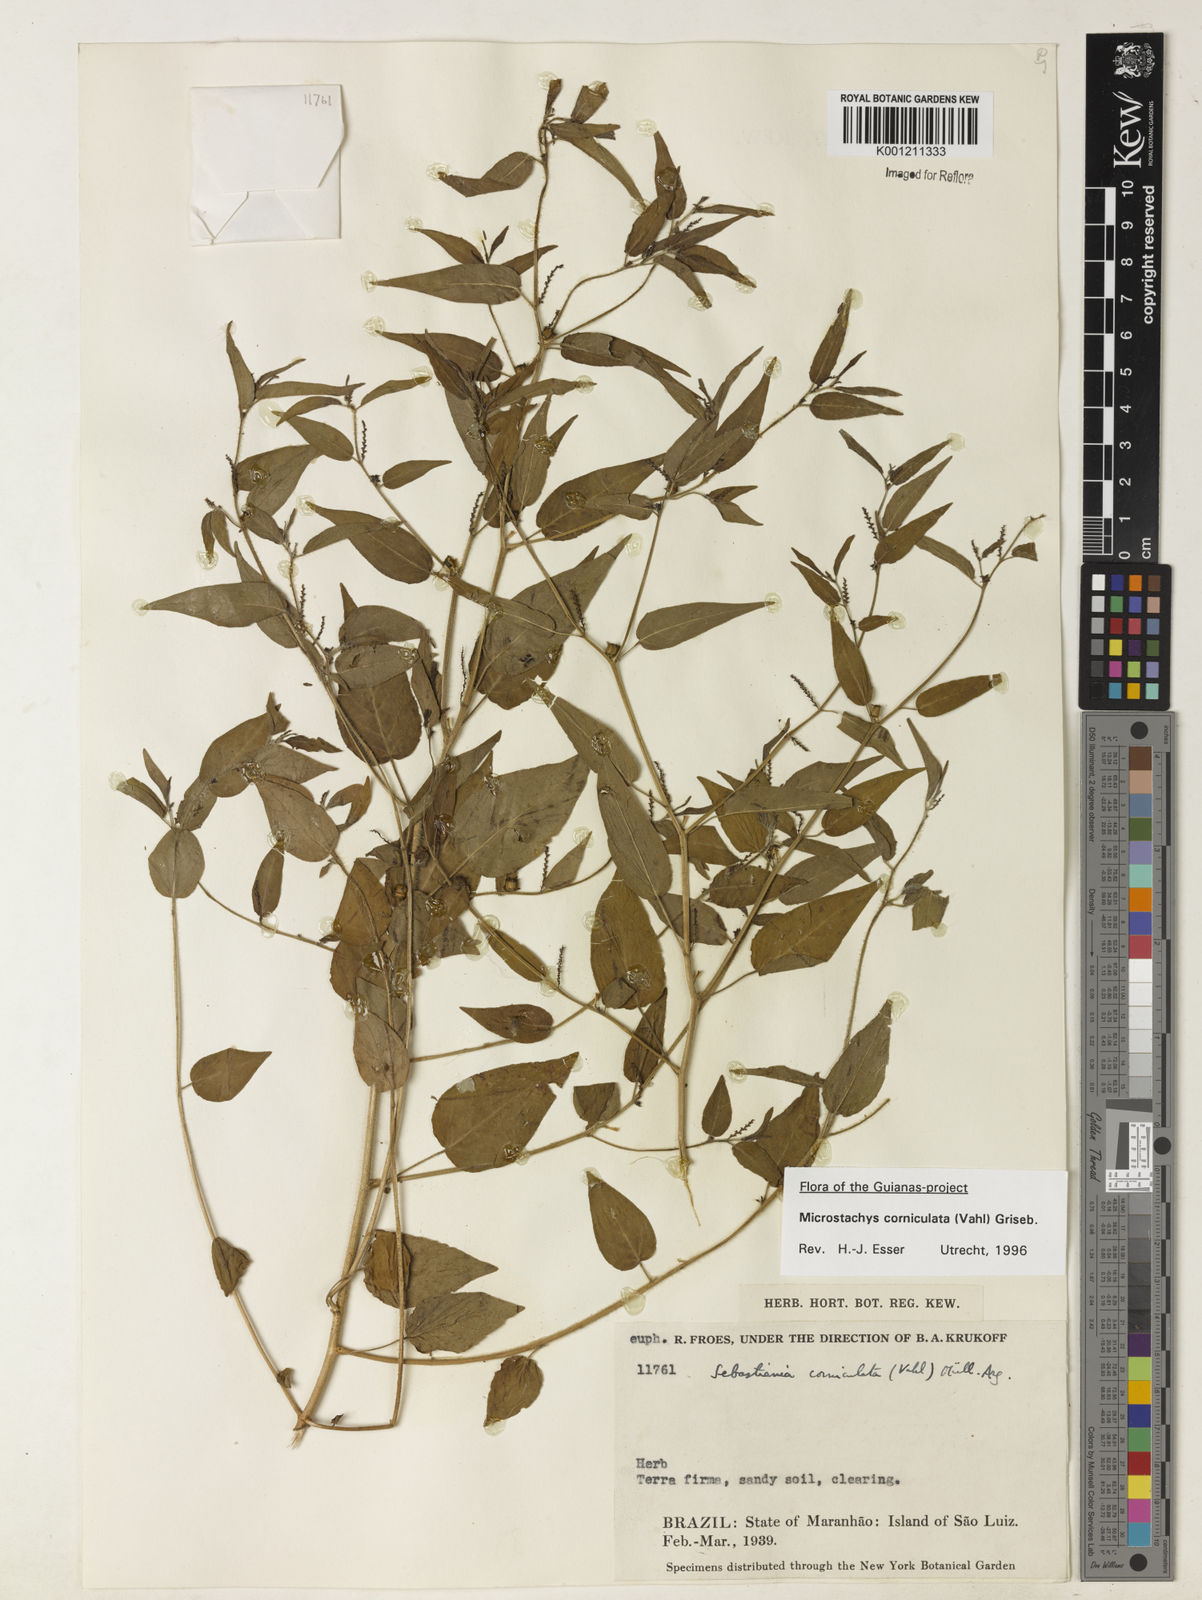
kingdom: Plantae
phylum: Tracheophyta
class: Magnoliopsida
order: Malpighiales
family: Euphorbiaceae
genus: Microstachys
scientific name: Microstachys corniculata
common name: Hato tejas
